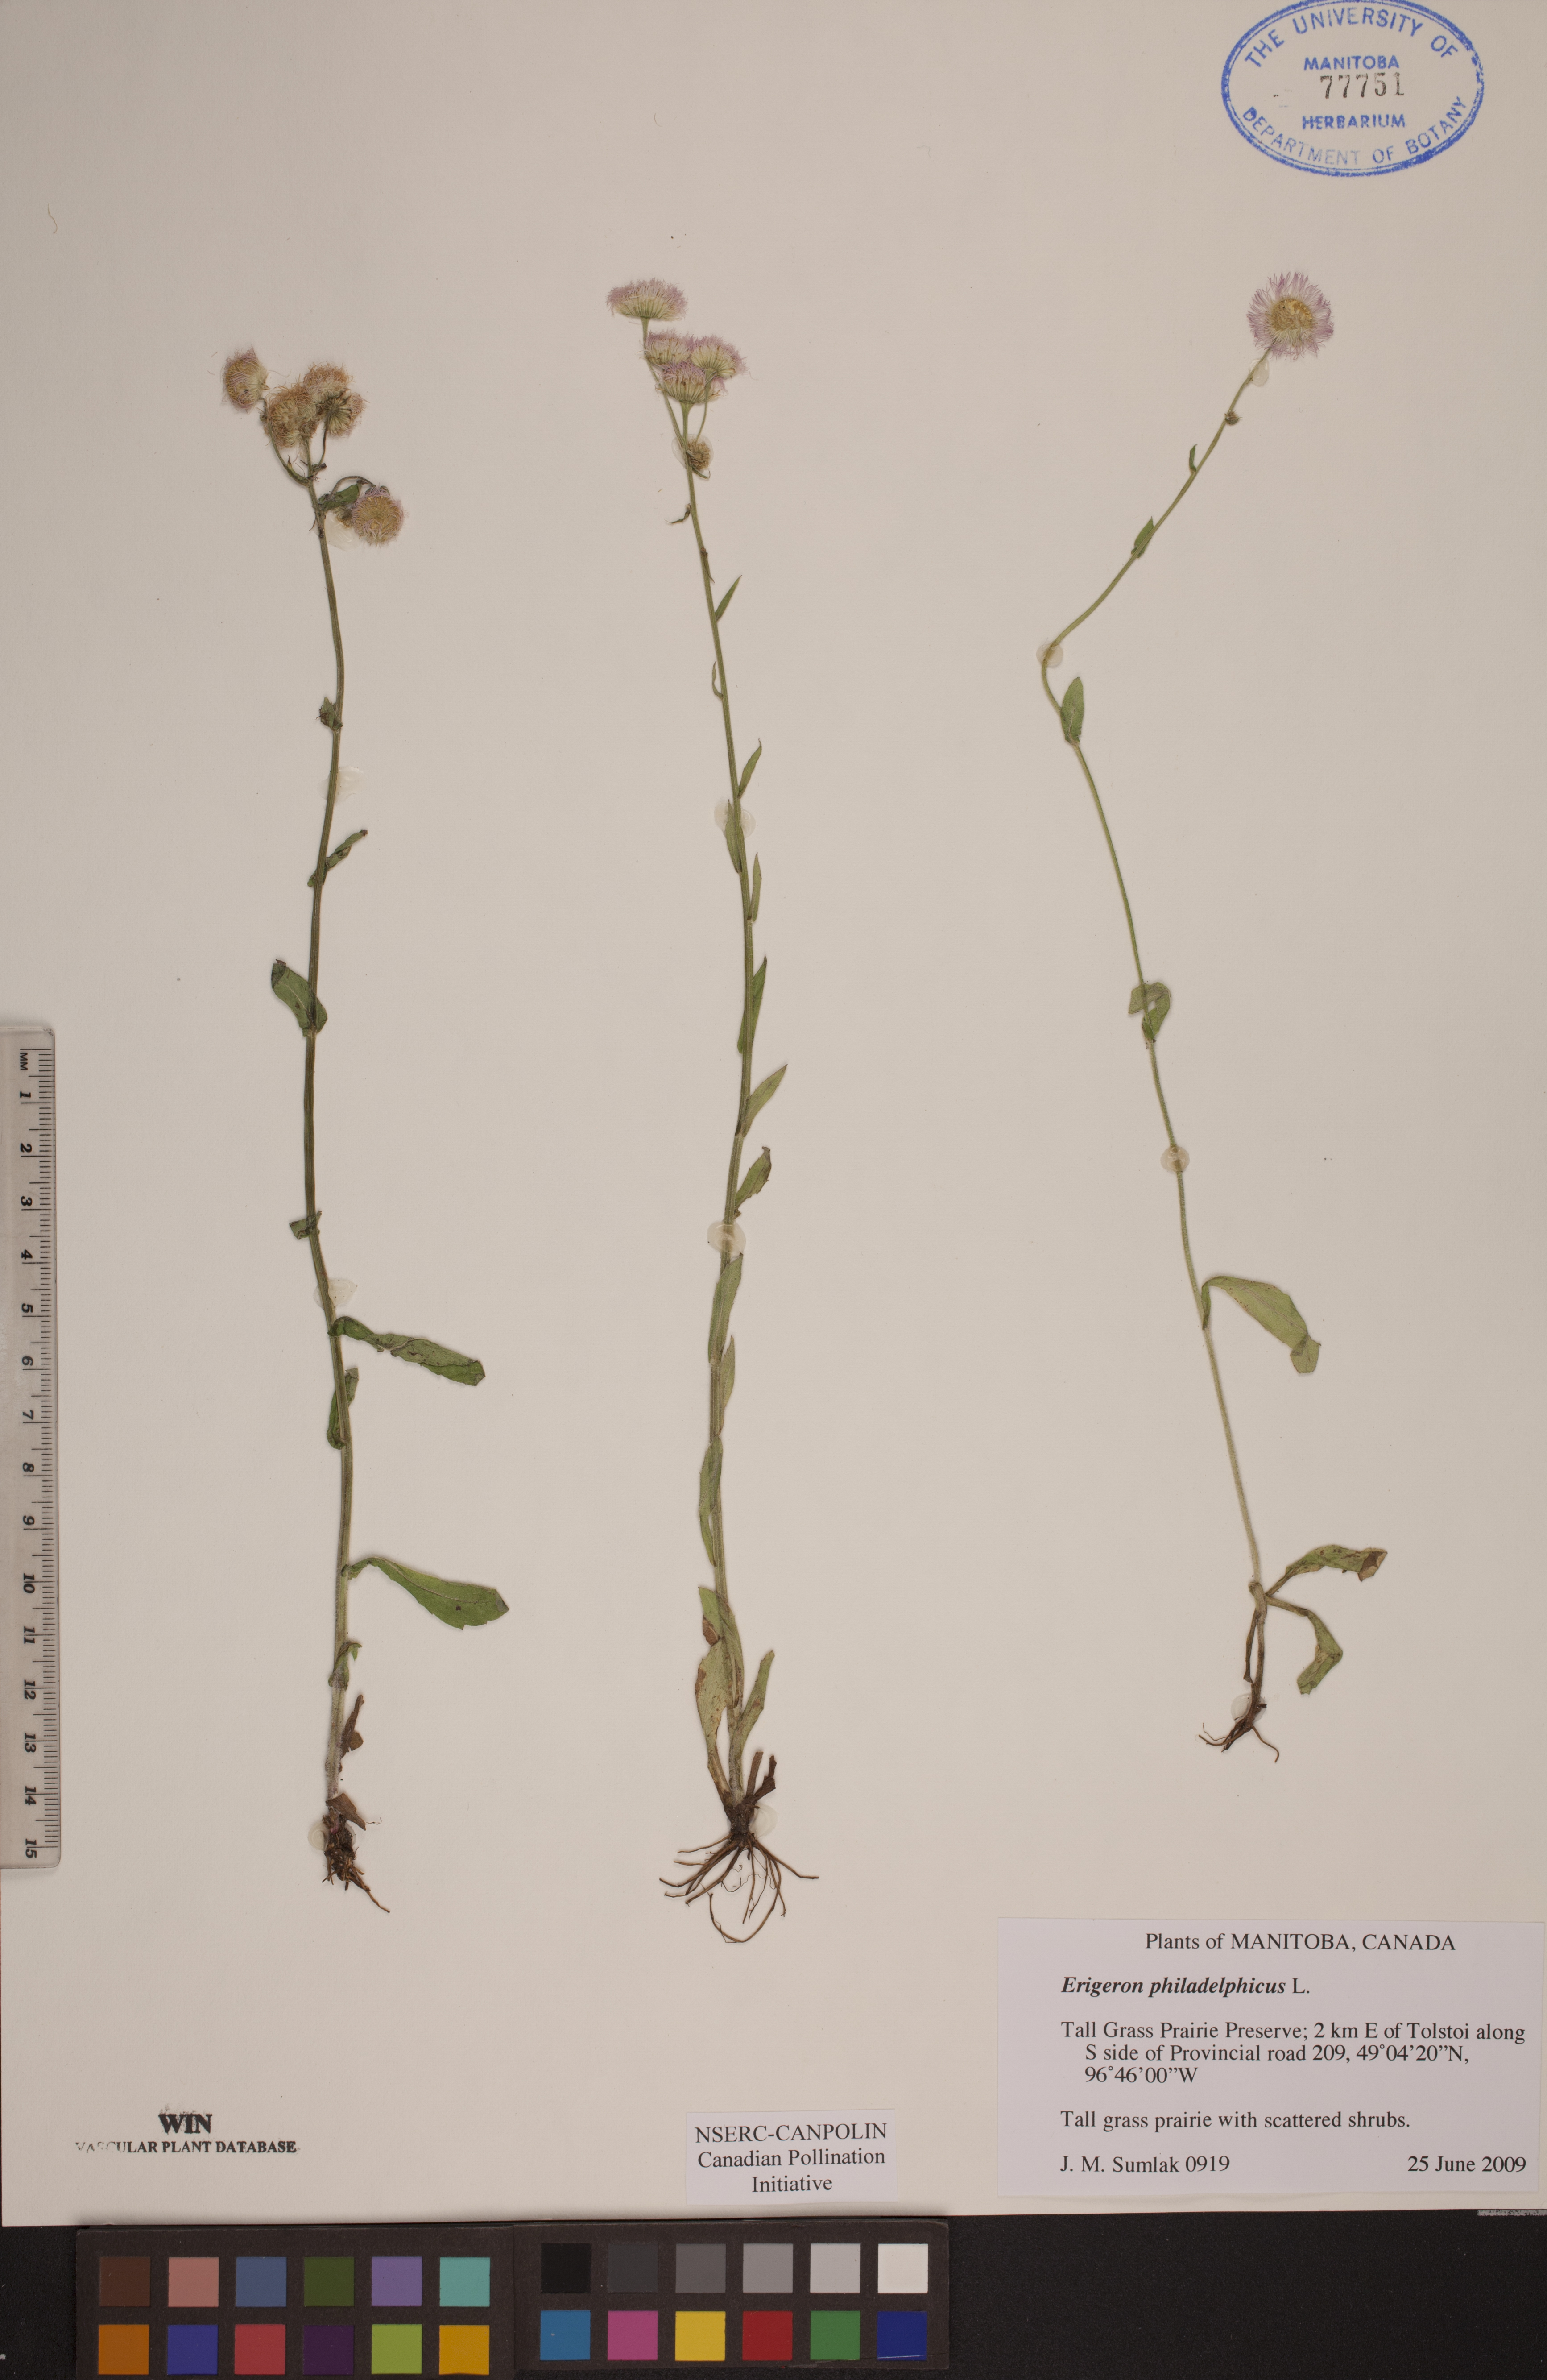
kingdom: Plantae
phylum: Tracheophyta
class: Magnoliopsida
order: Asterales
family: Asteraceae
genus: Erigeron
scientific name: Erigeron philadelphicus
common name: Robin's-plantain
